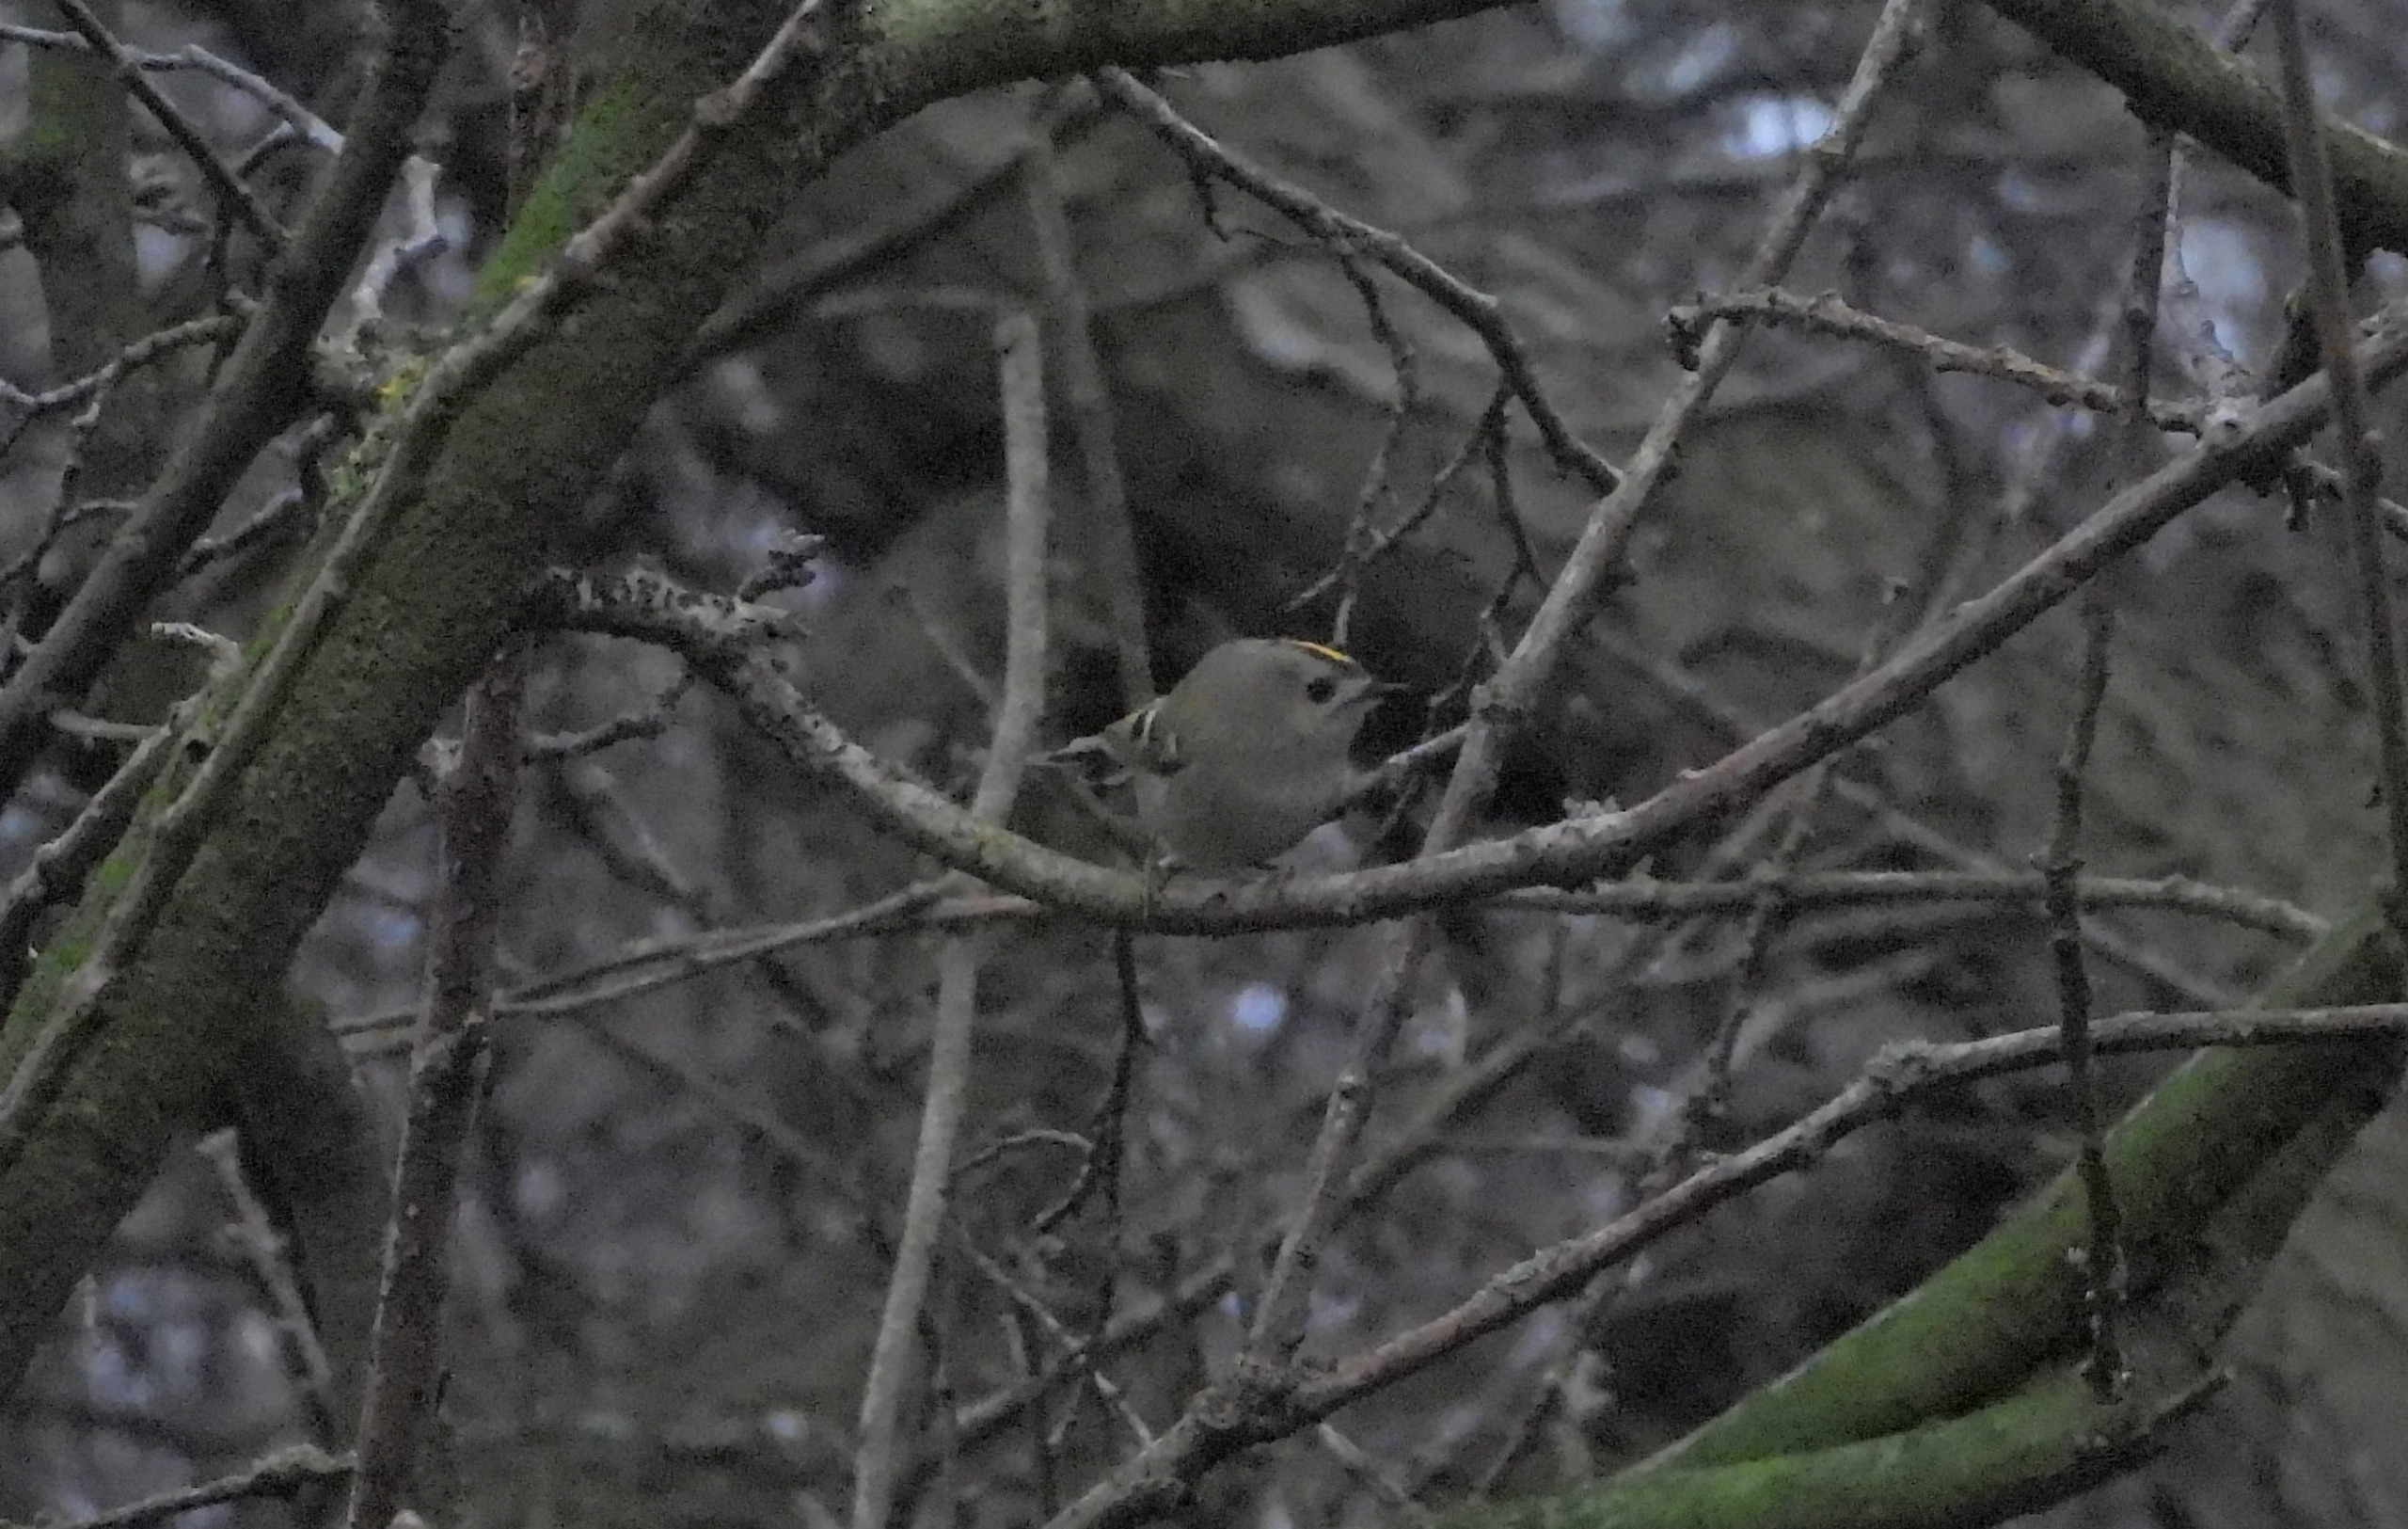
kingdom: Animalia
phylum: Chordata
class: Aves
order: Passeriformes
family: Regulidae
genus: Regulus
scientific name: Regulus regulus
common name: Fuglekonge
